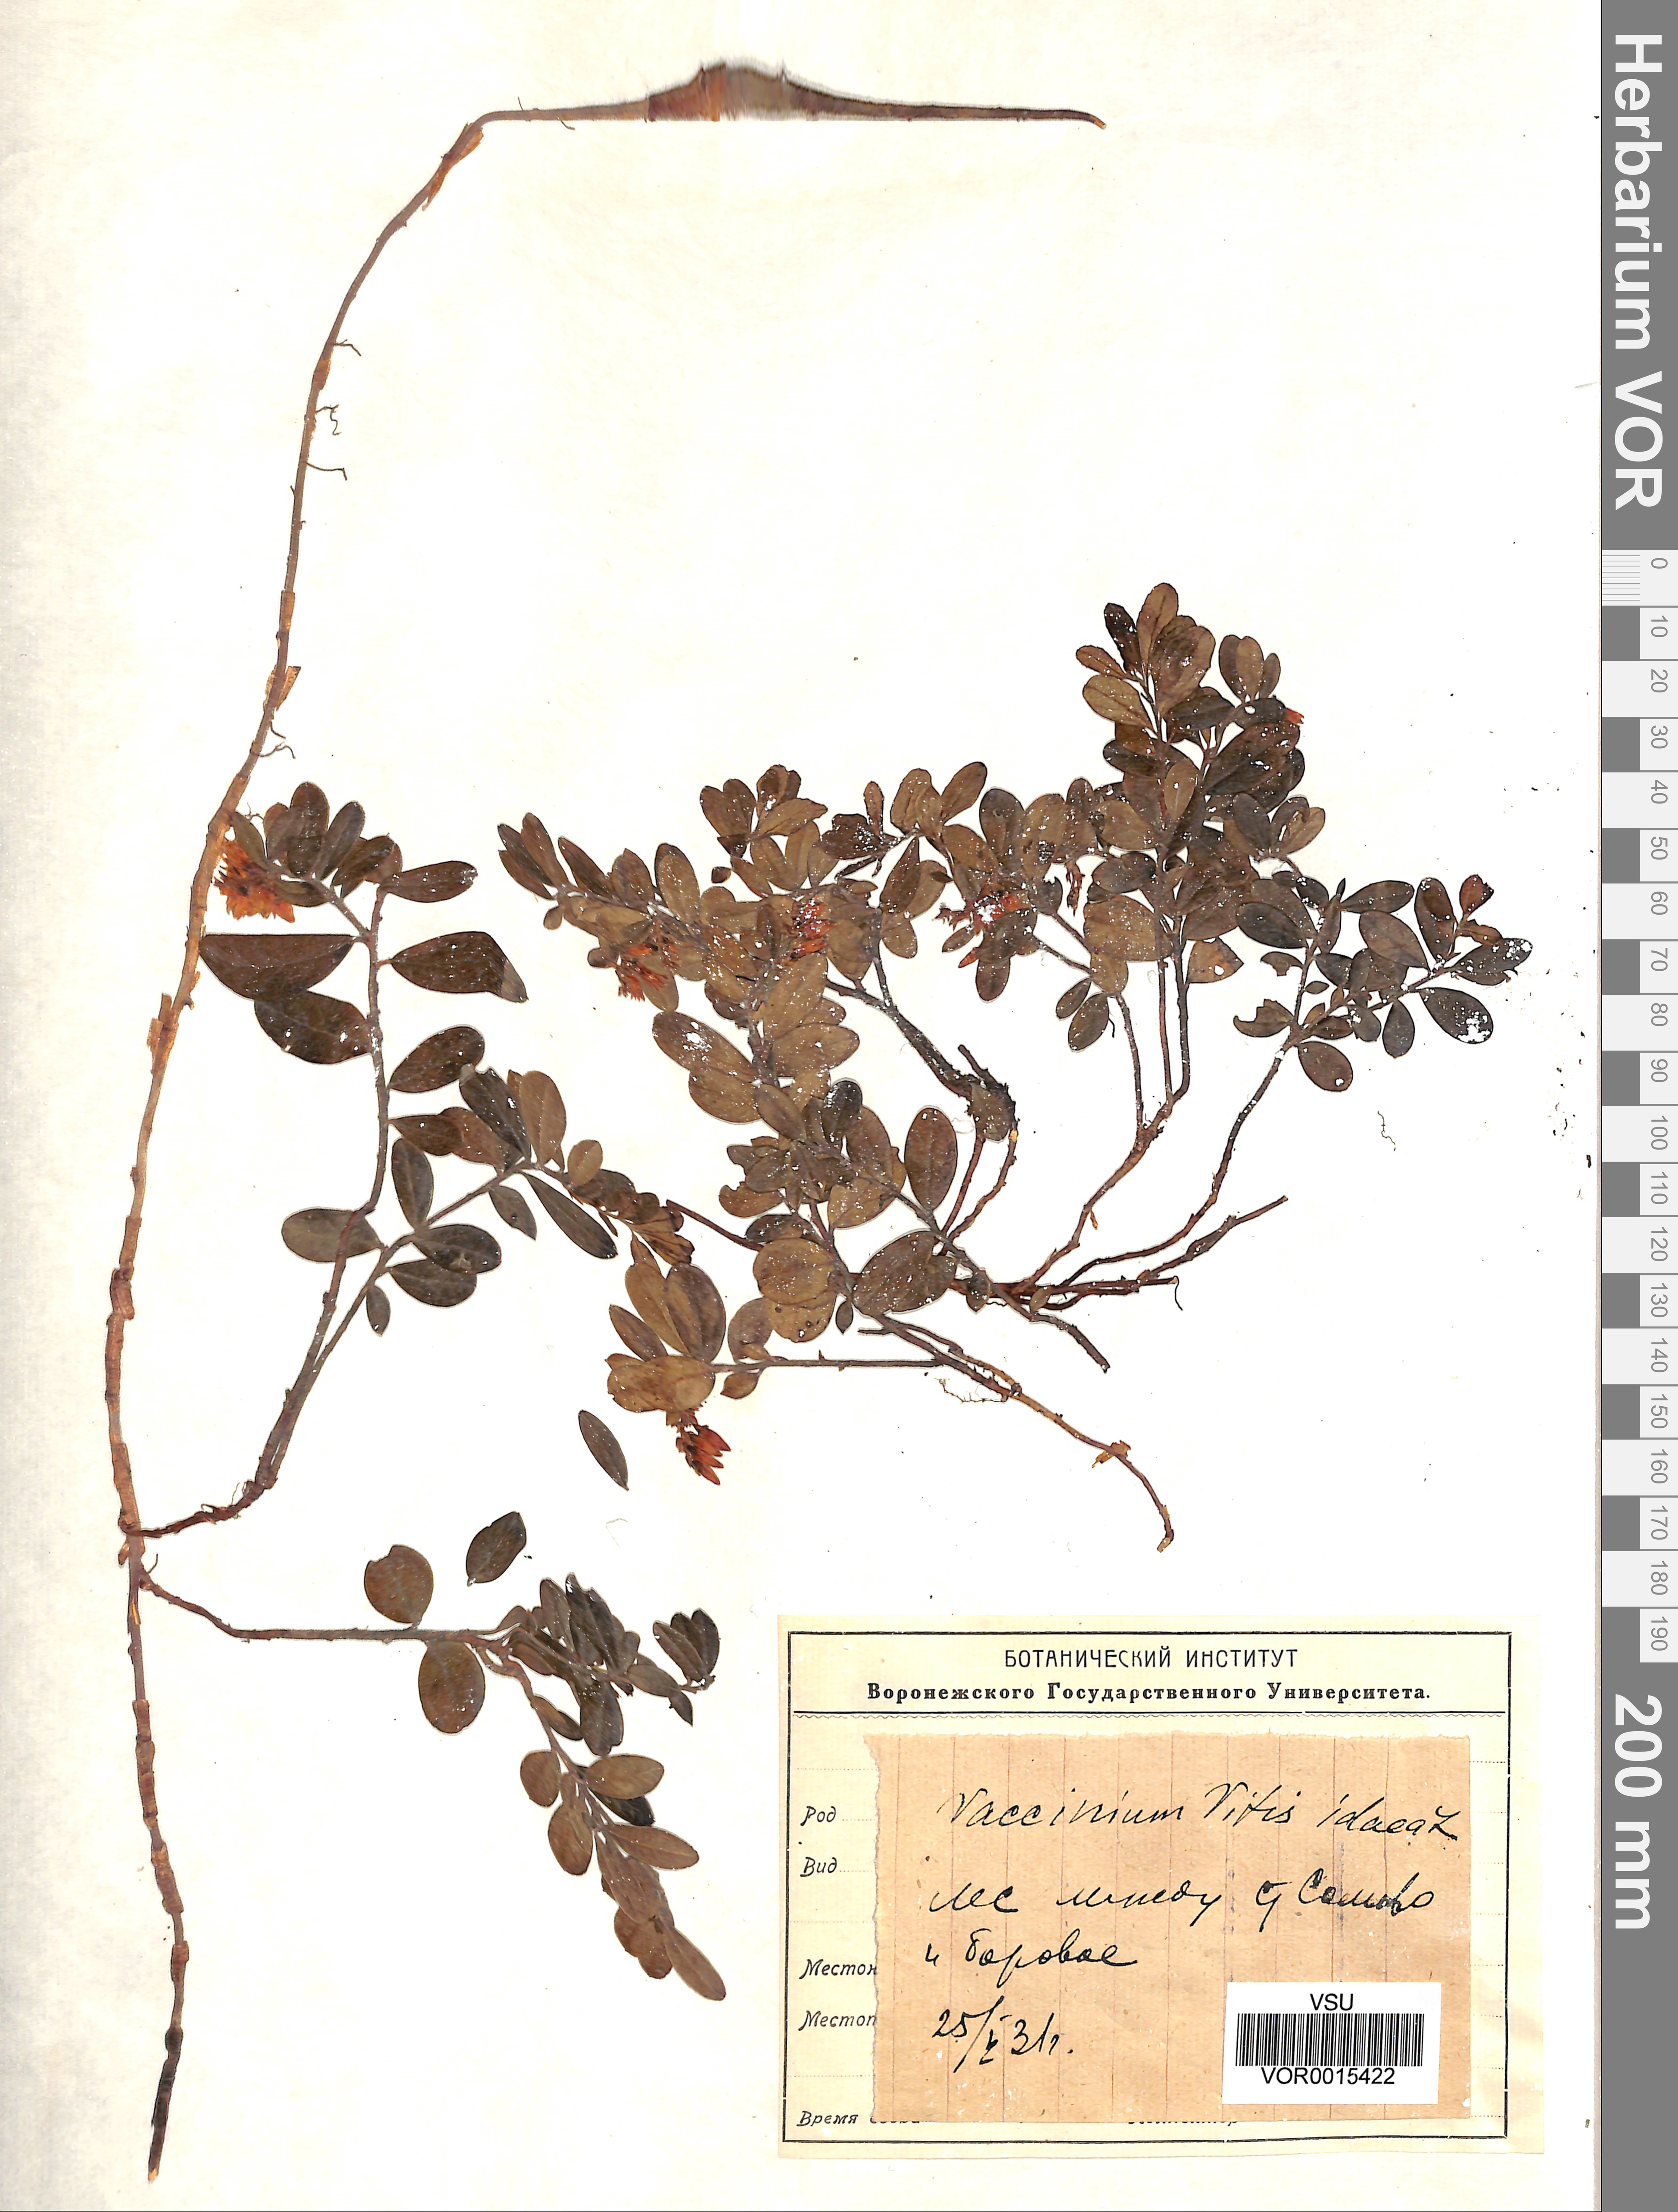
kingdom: Plantae
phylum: Tracheophyta
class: Magnoliopsida
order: Ericales
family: Ericaceae
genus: Vaccinium
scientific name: Vaccinium vitis-idaea
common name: Cowberry
